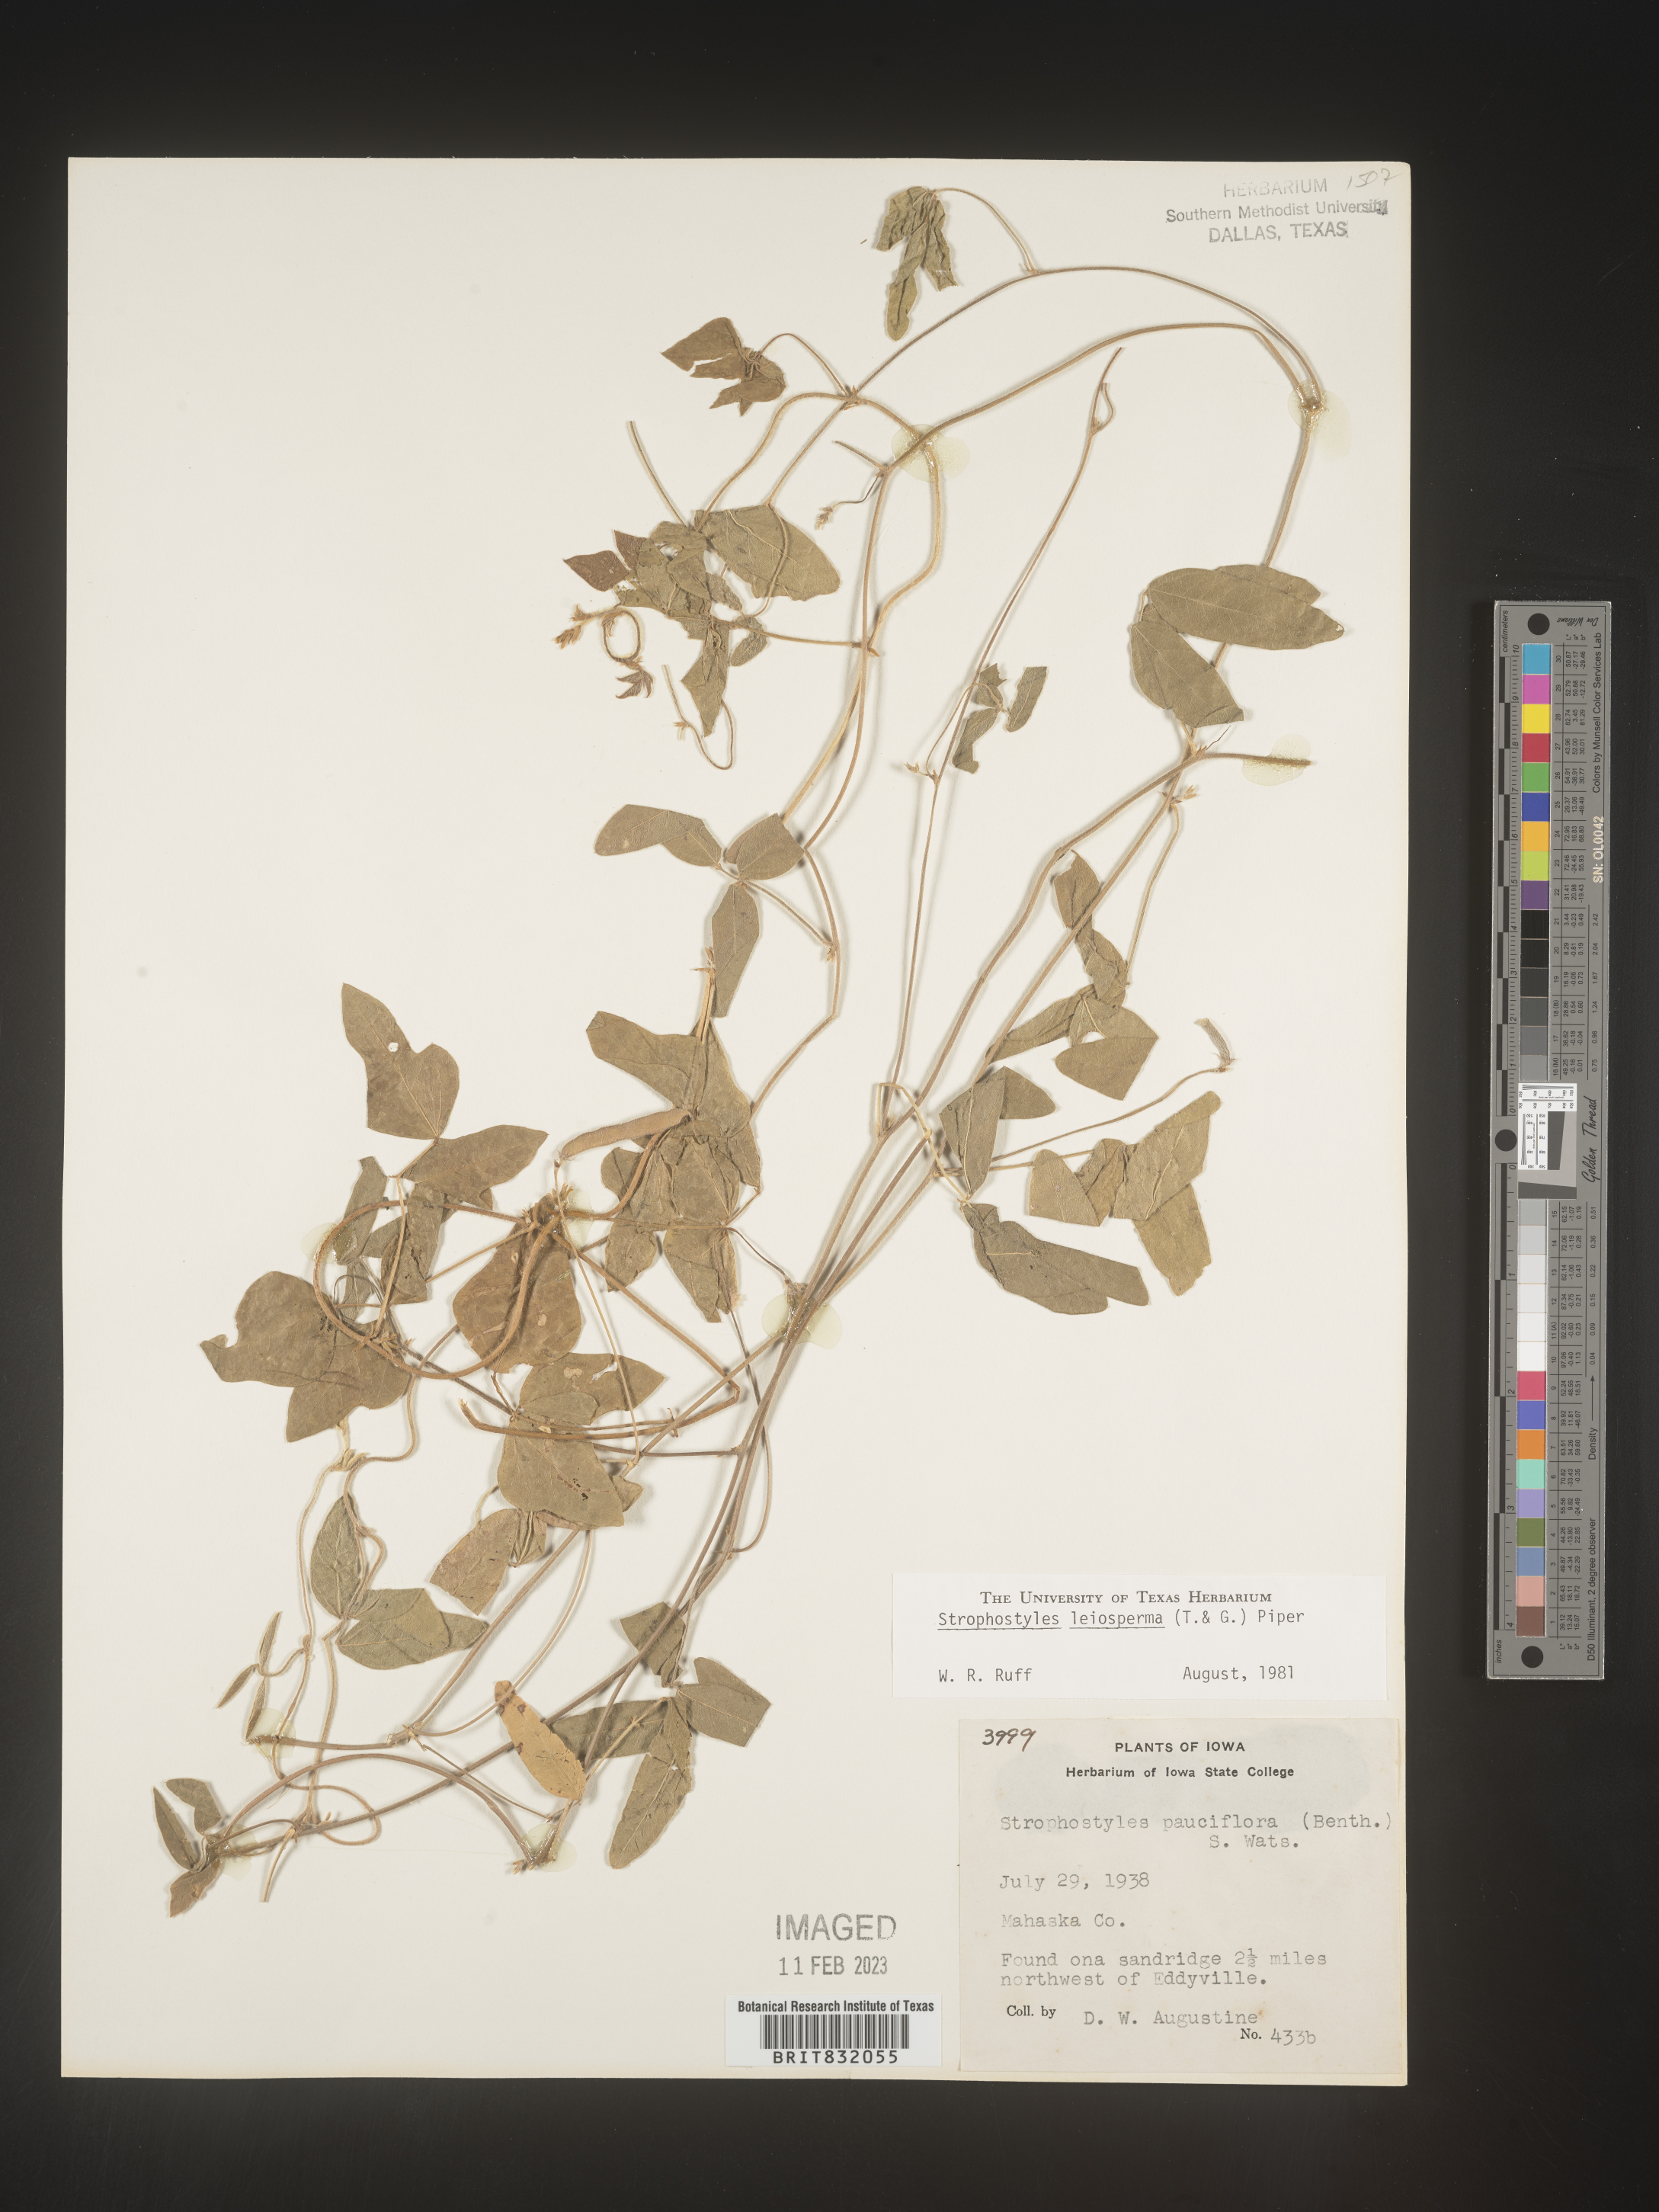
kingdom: Plantae
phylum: Tracheophyta
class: Magnoliopsida
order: Fabales
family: Fabaceae
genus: Strophostyles
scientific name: Strophostyles leiosperma
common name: Smooth-seed wild bean
